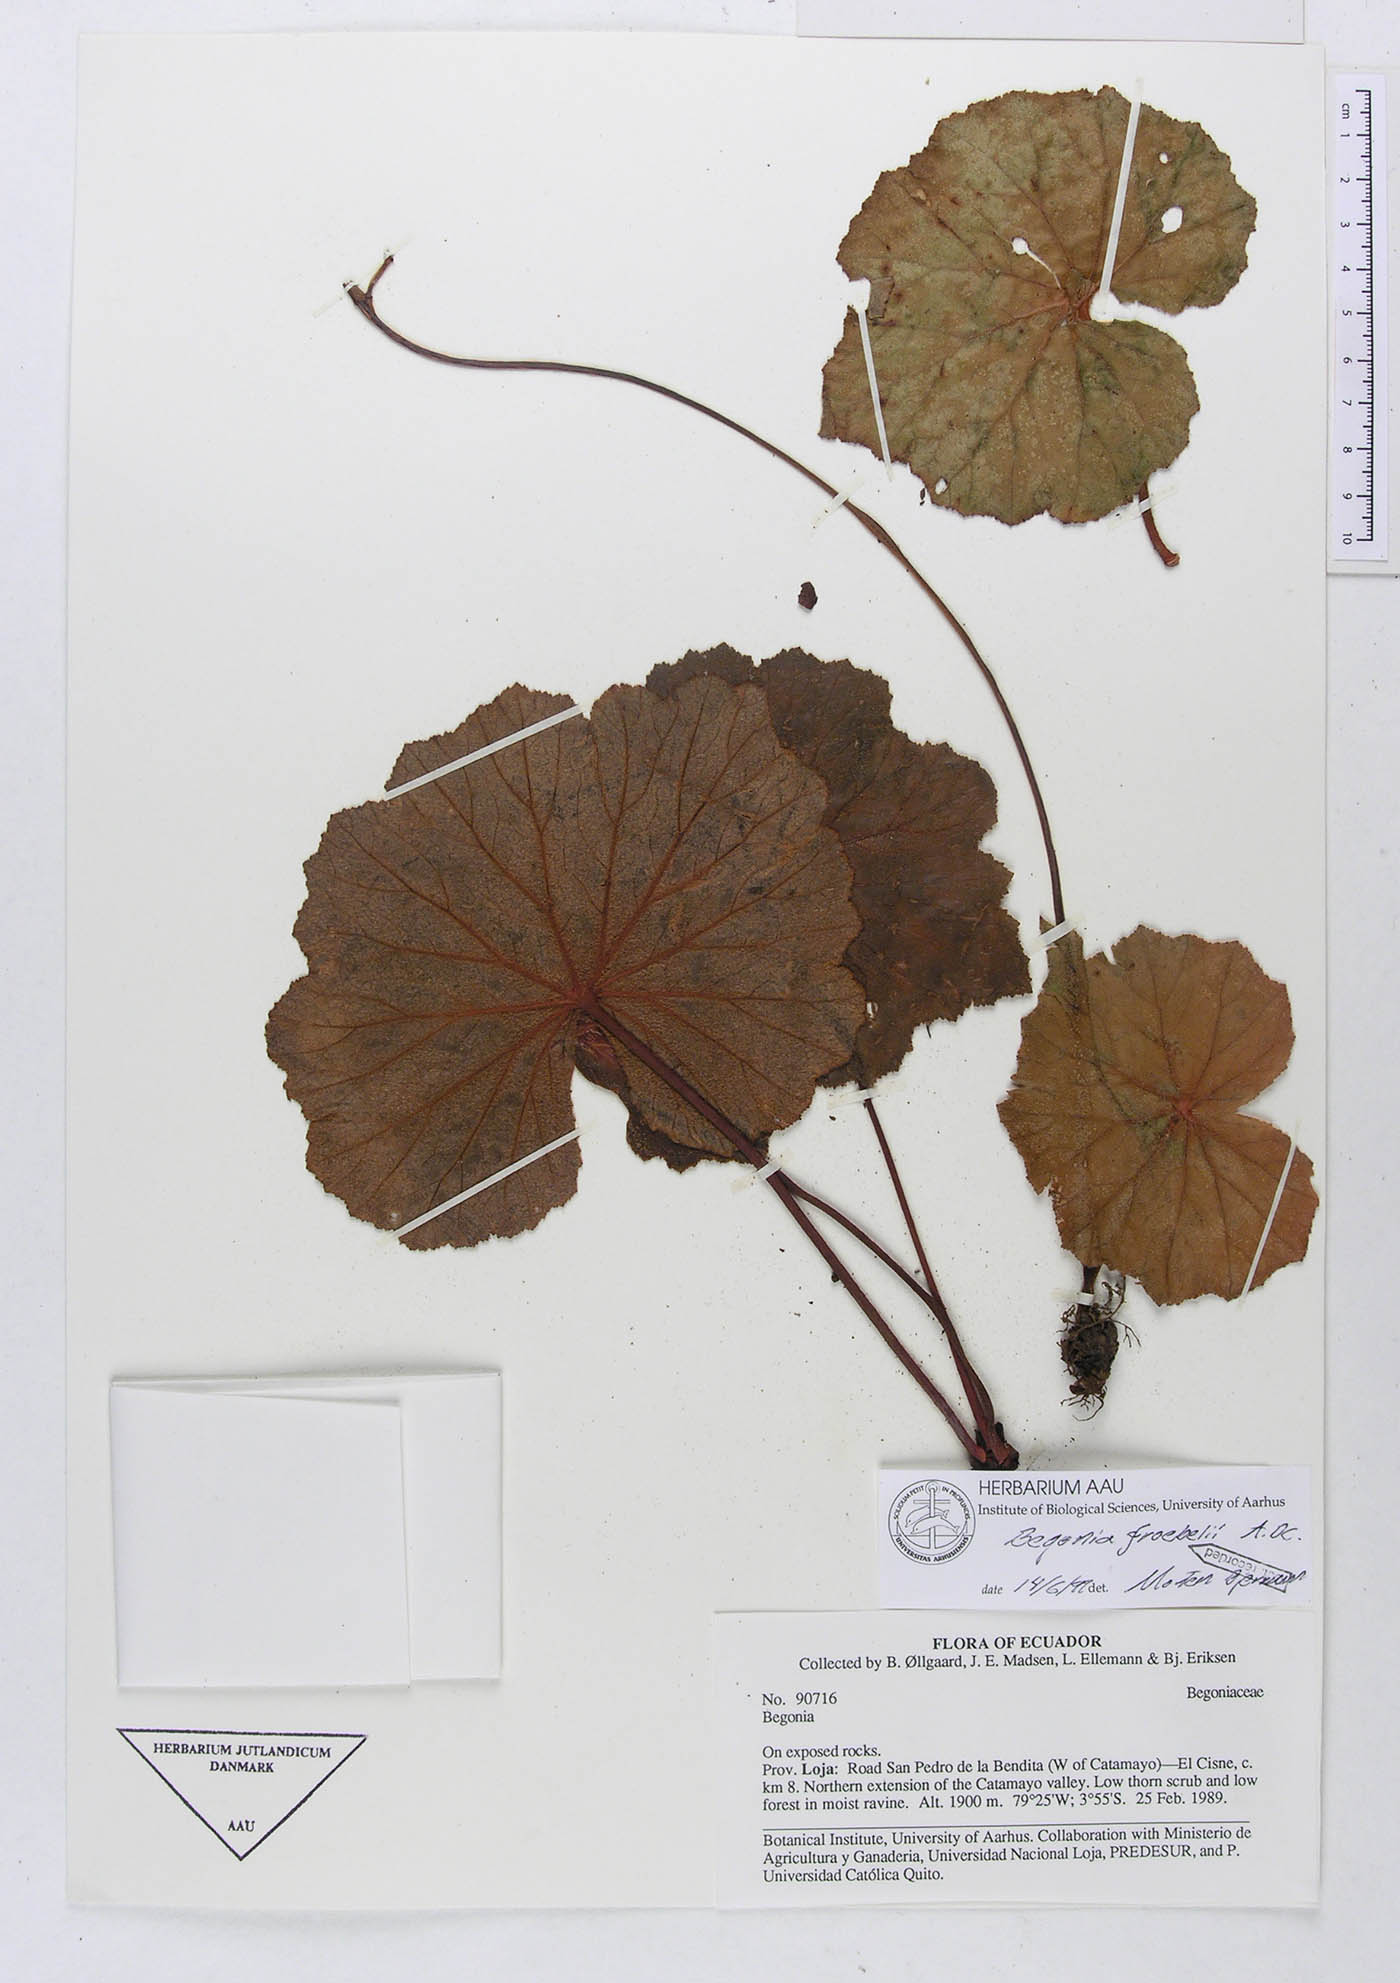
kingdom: Plantae
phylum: Tracheophyta
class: Magnoliopsida
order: Cucurbitales
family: Begoniaceae
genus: Begonia
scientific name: Begonia parcifolia
